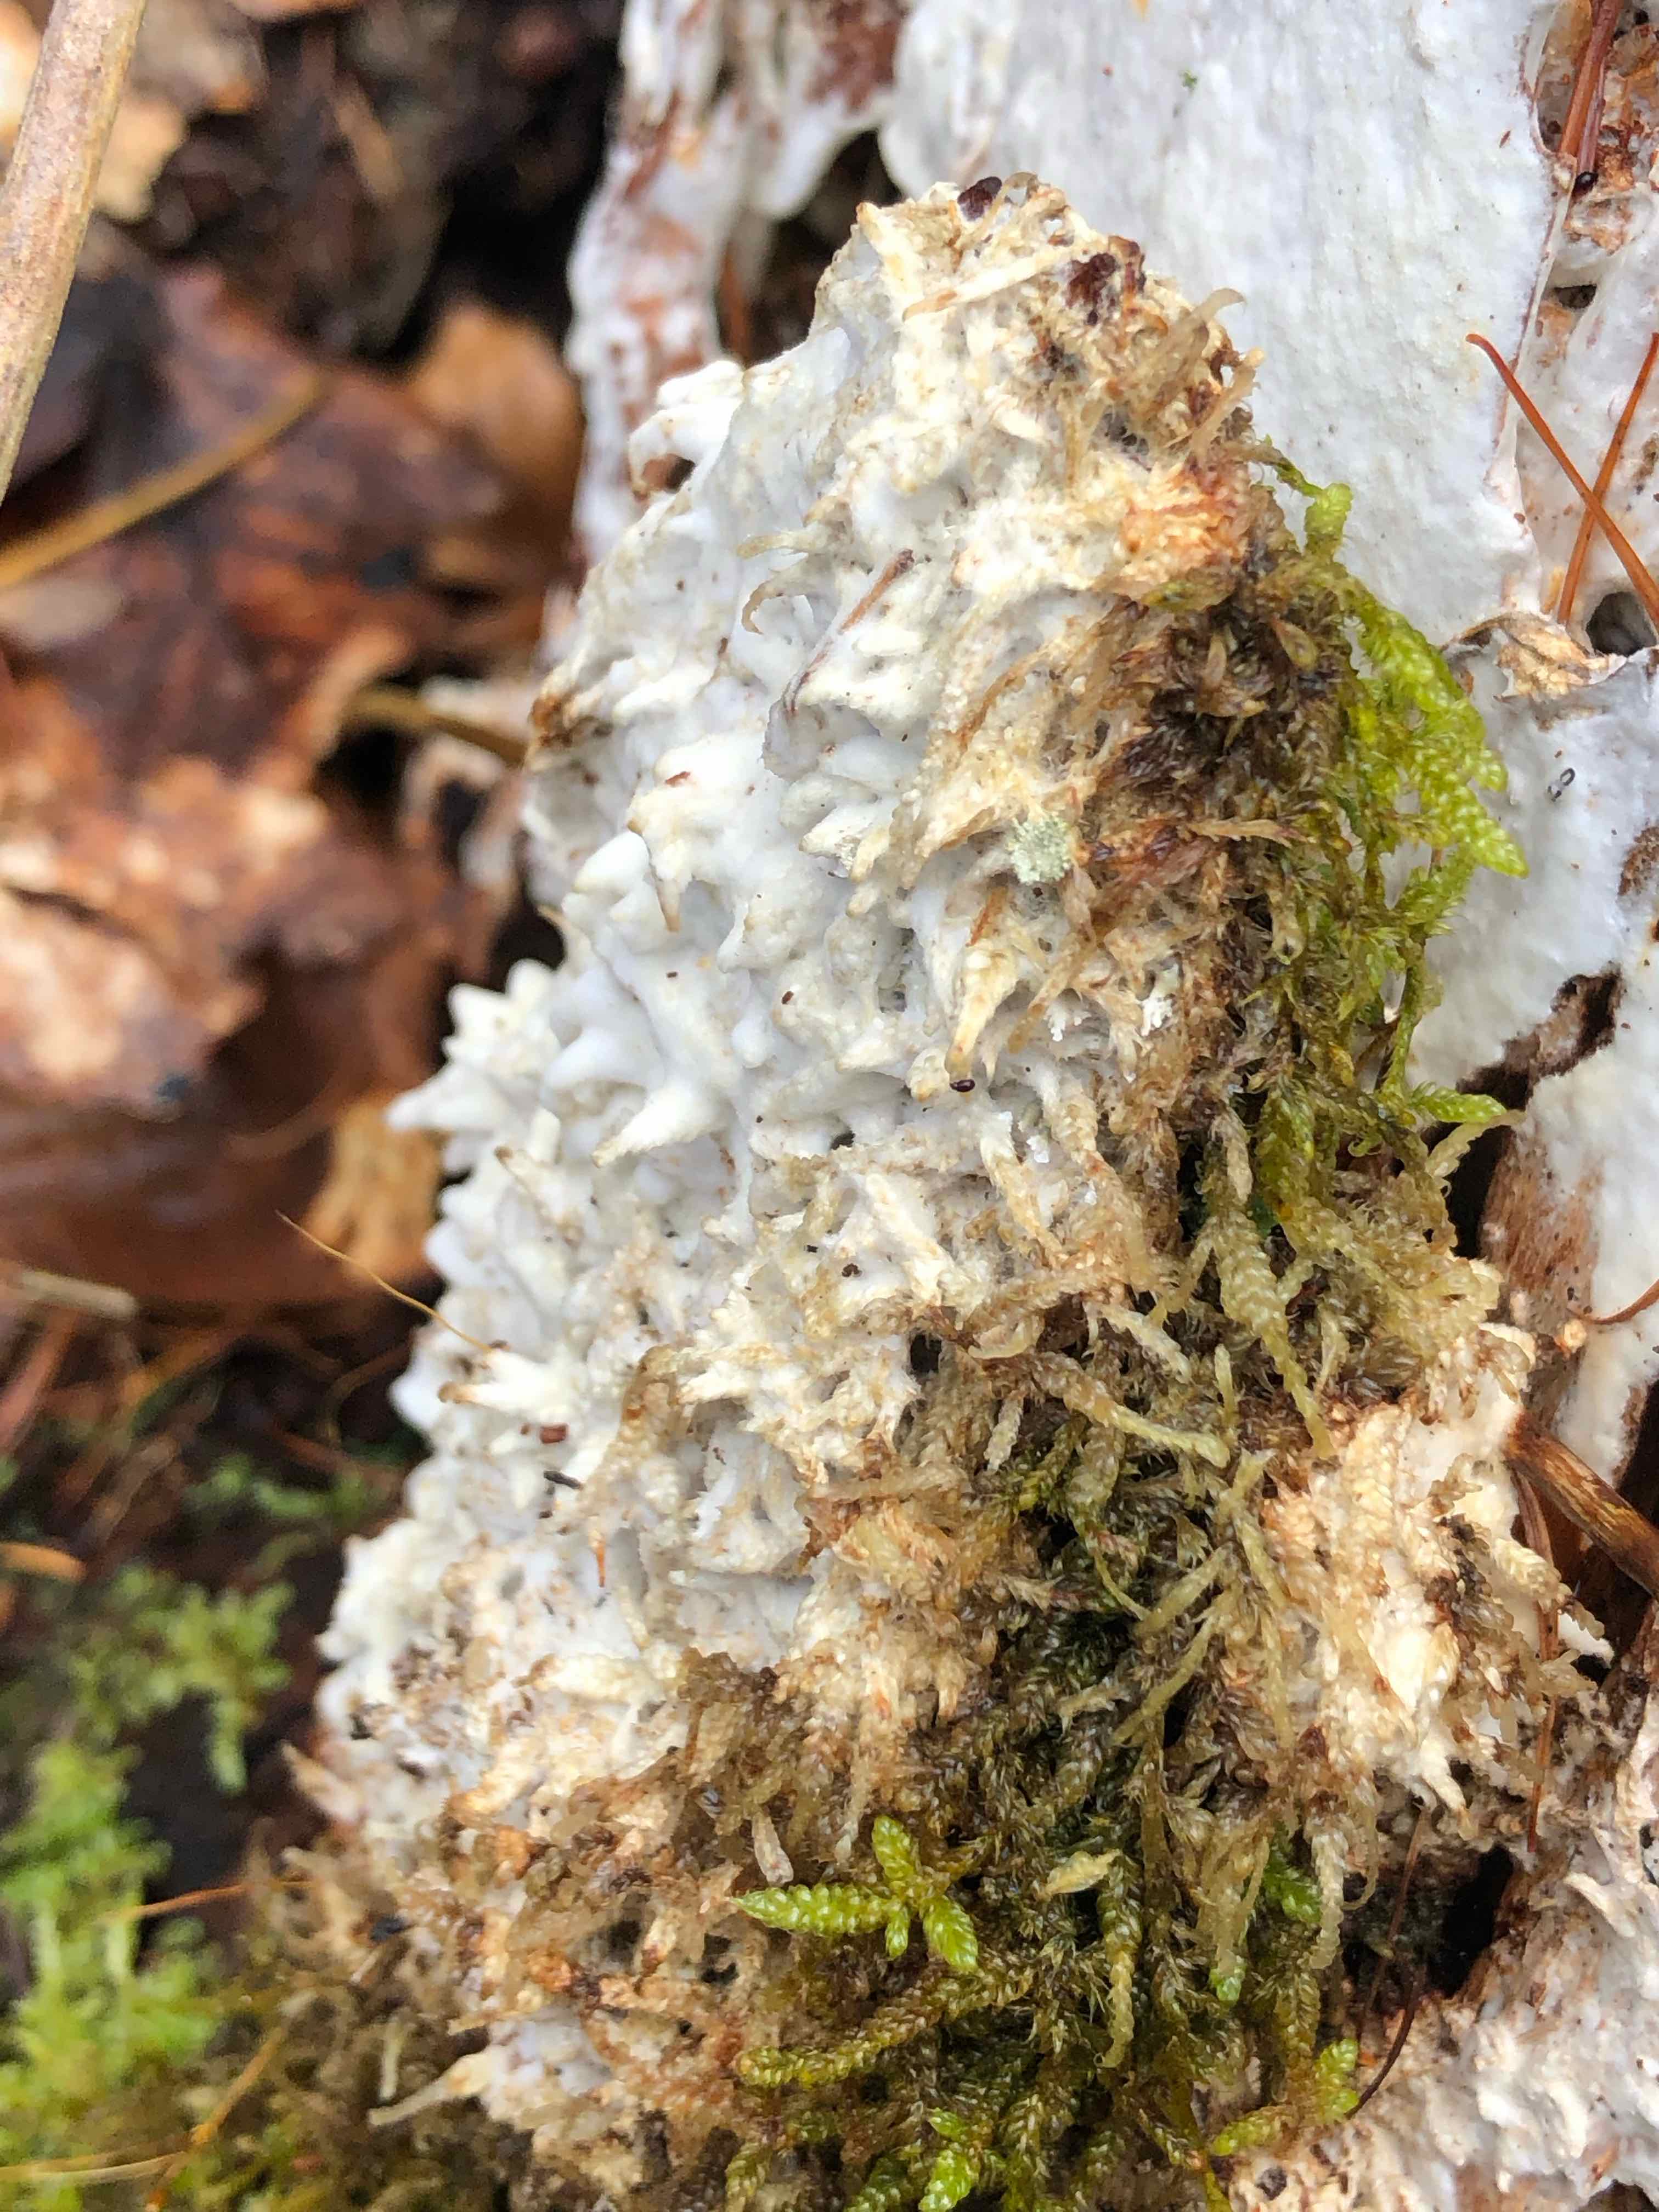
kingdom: Fungi
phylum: Basidiomycota
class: Agaricomycetes
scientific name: Agaricomycetes
